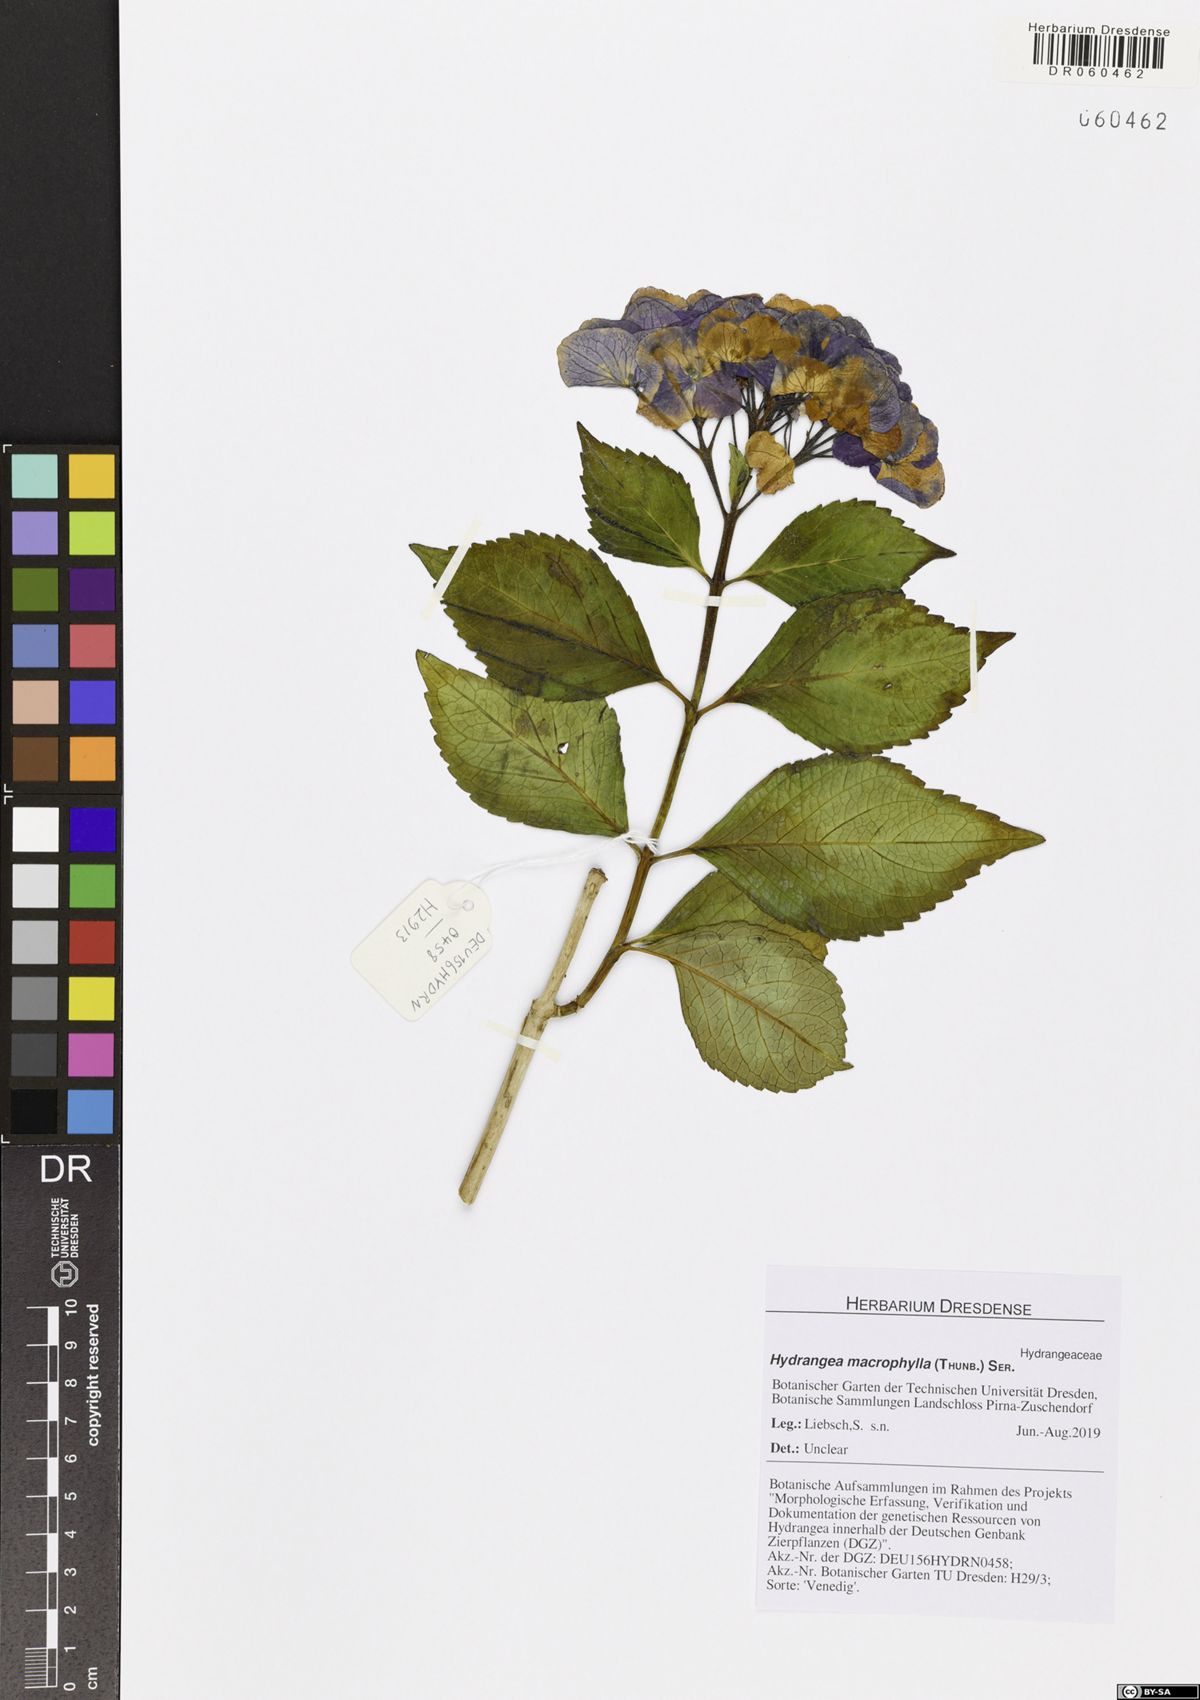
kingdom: Plantae
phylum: Tracheophyta
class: Magnoliopsida
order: Cornales
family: Hydrangeaceae
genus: Hydrangea
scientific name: Hydrangea macrophylla
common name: Hydrangea
